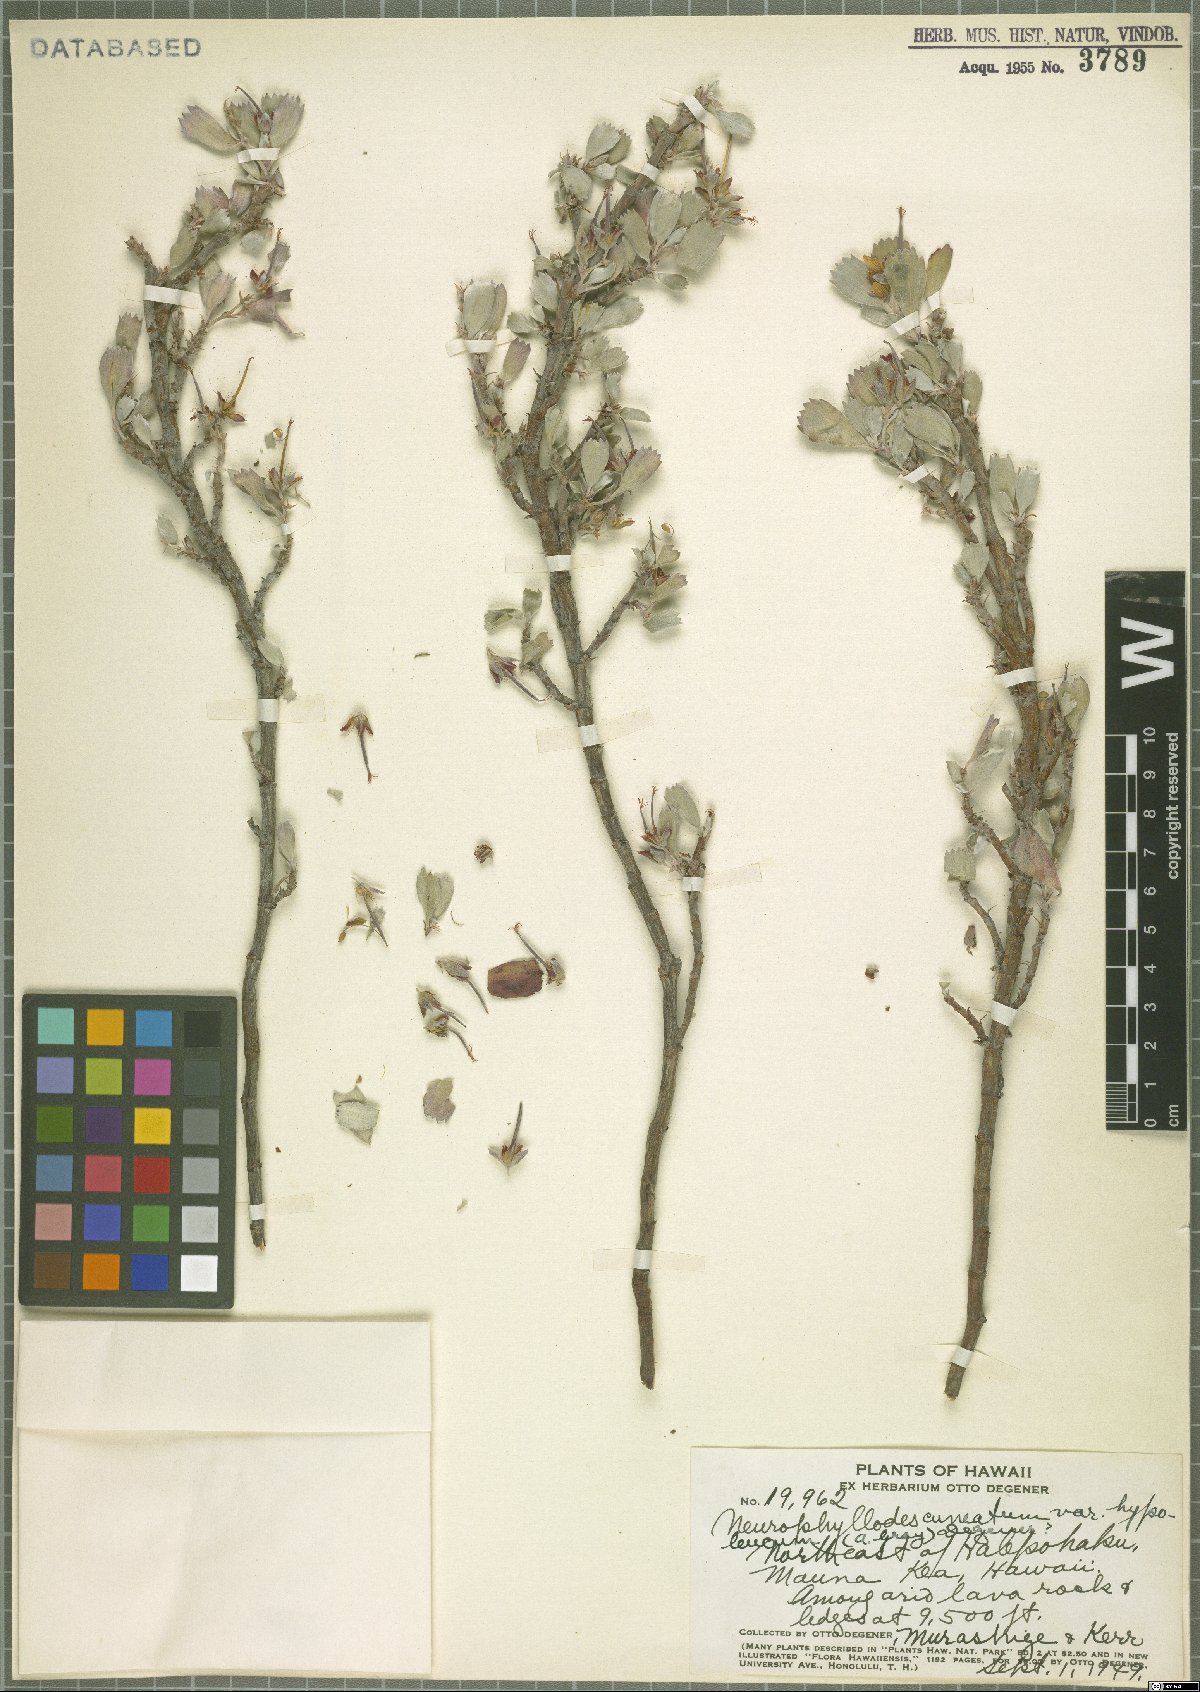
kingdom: Plantae
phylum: Tracheophyta
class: Magnoliopsida
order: Geraniales
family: Geraniaceae
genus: Geranium
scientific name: Geranium cuneatum
